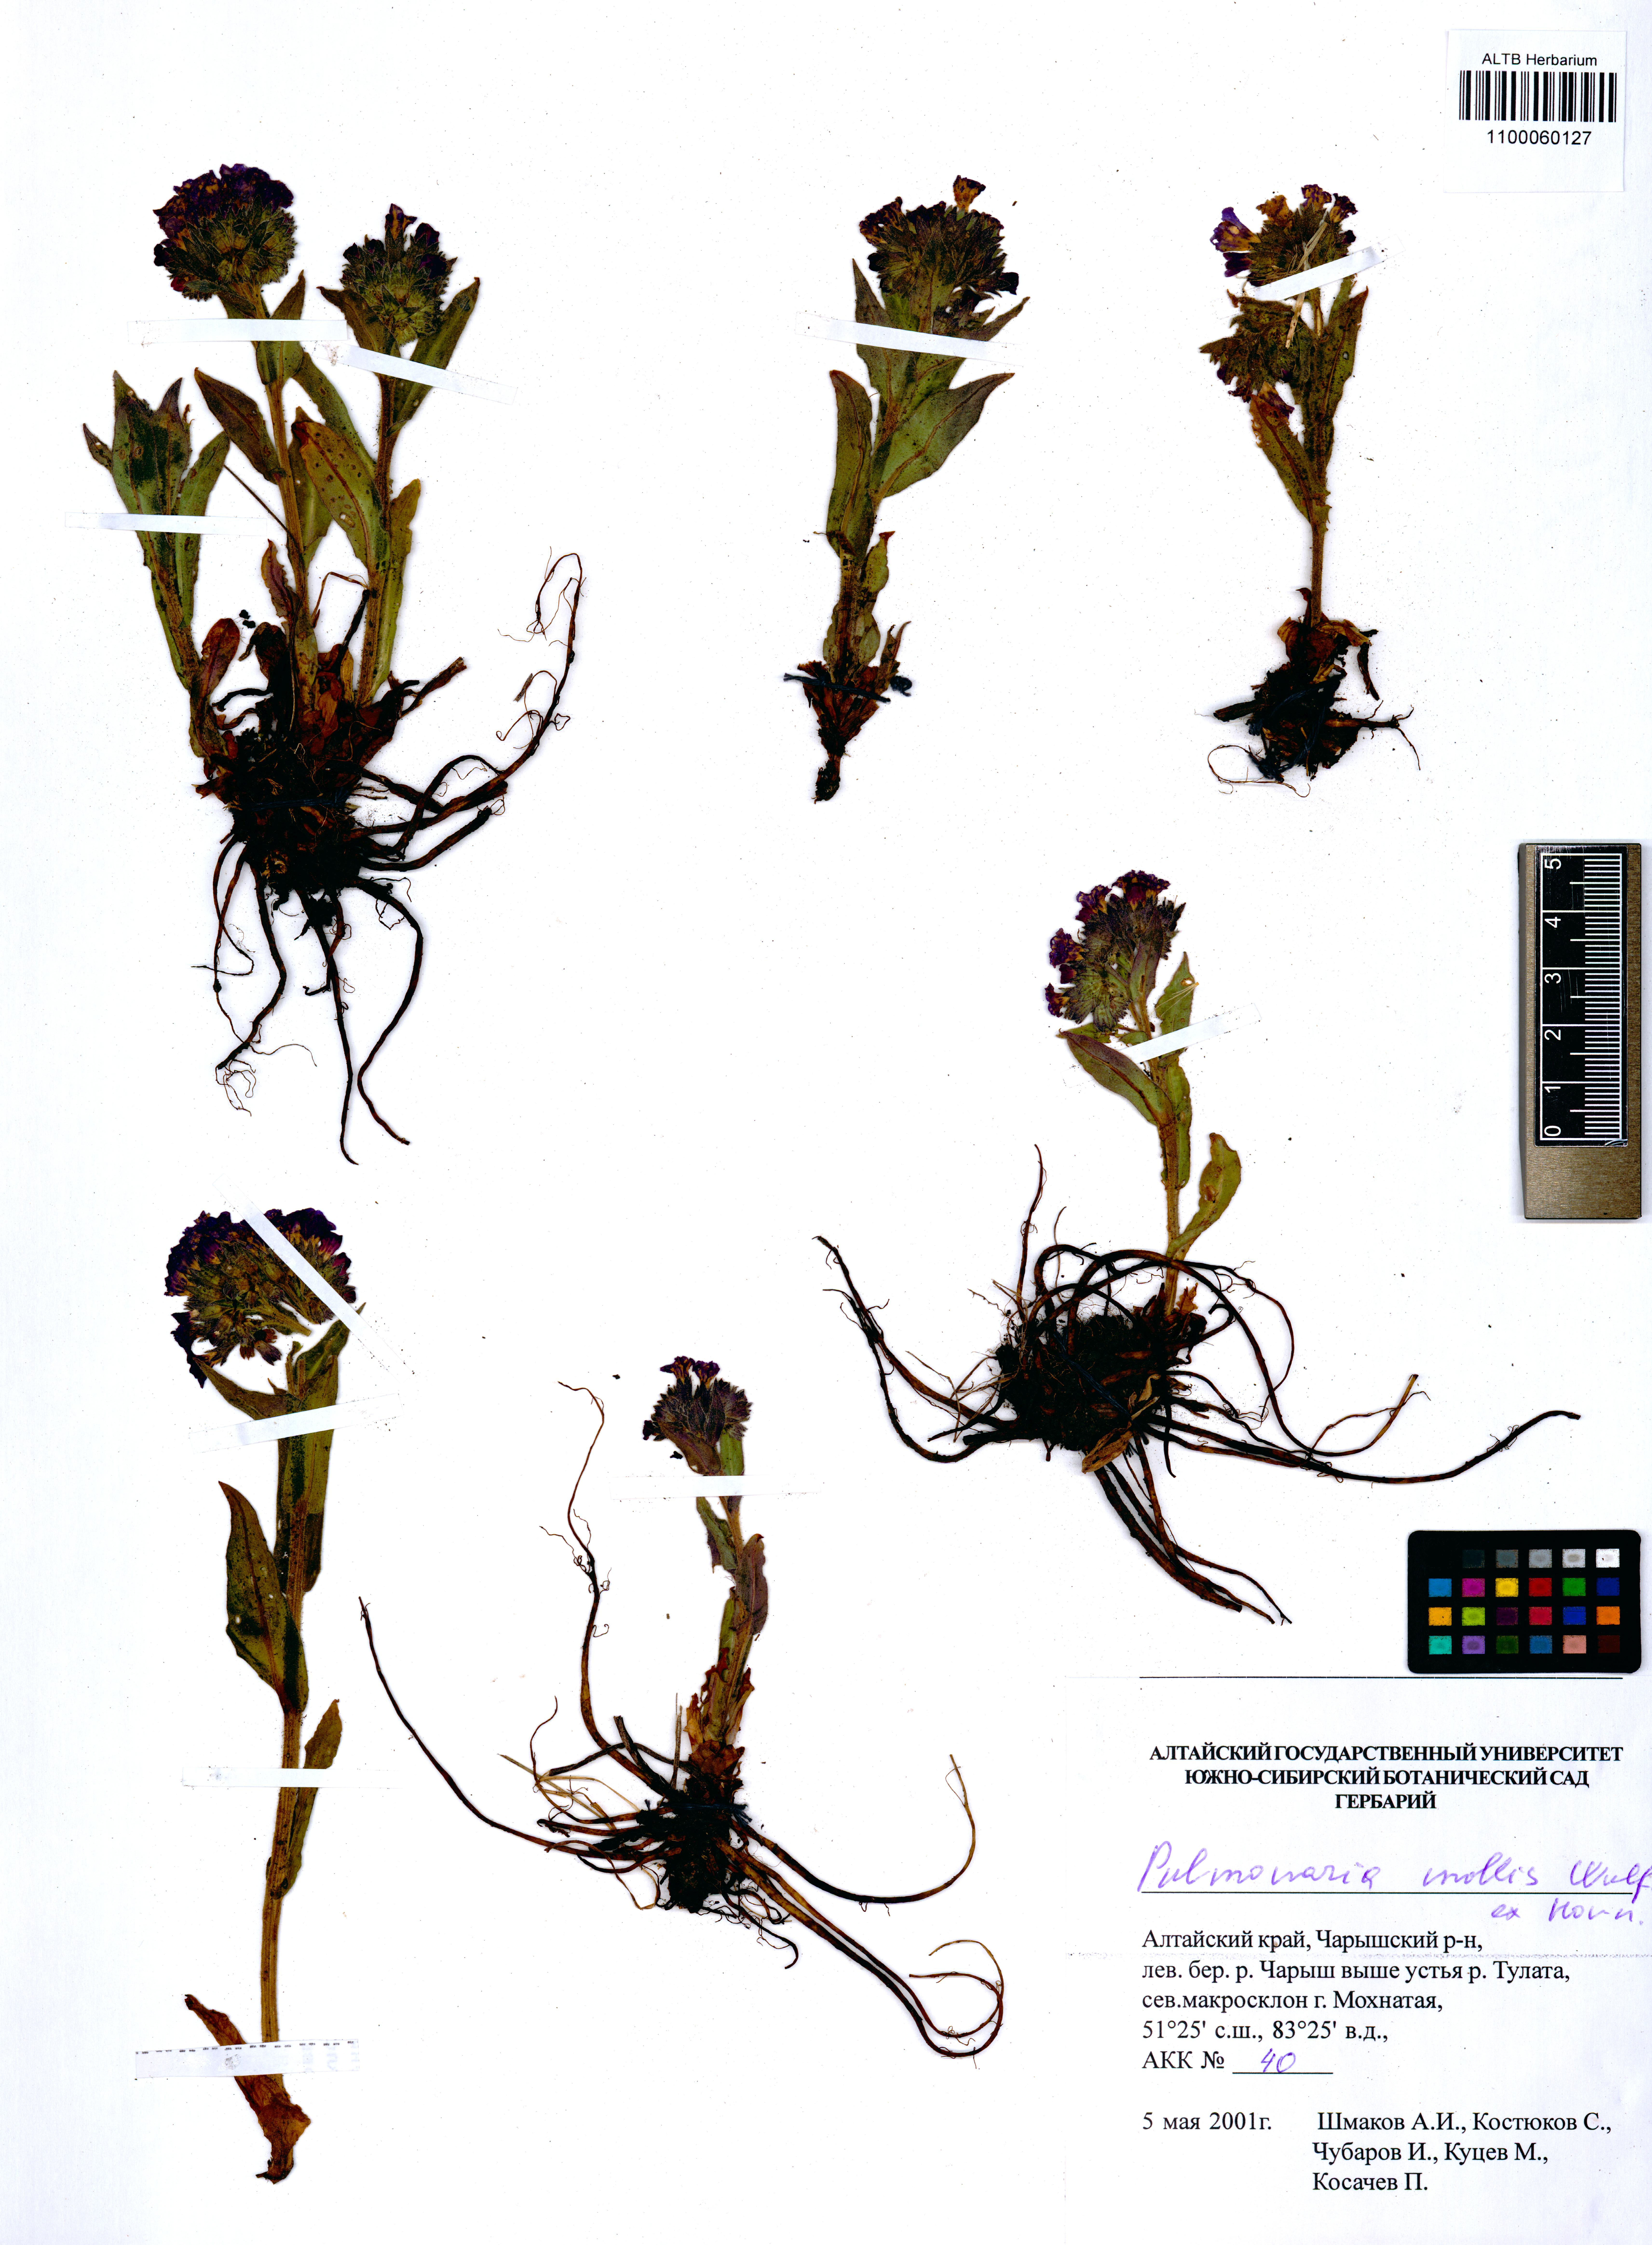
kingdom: Plantae
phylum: Tracheophyta
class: Magnoliopsida
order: Boraginales
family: Boraginaceae
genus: Pulmonaria
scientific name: Pulmonaria mollis
